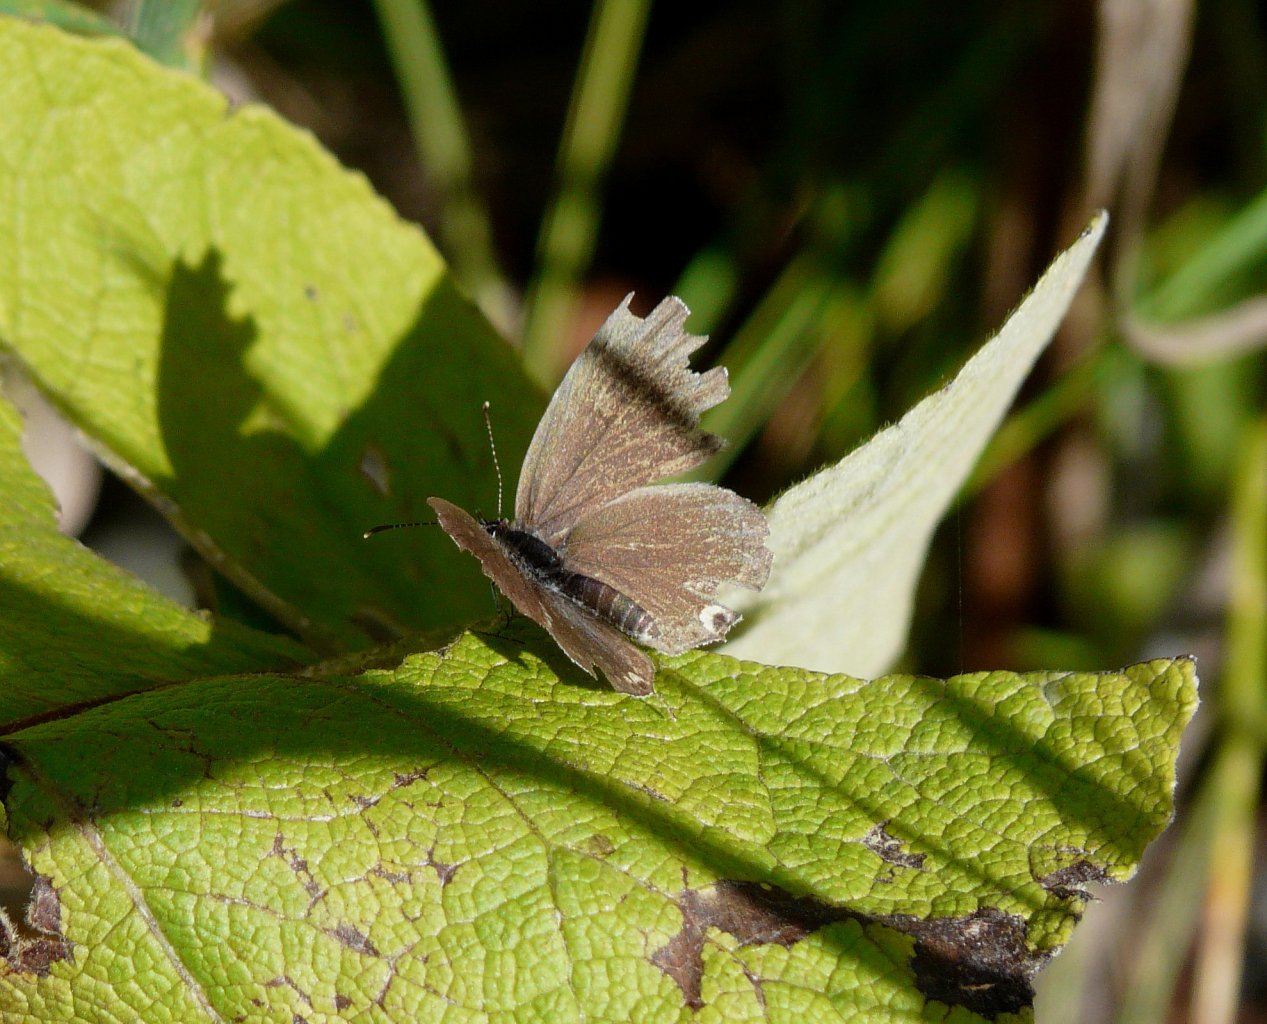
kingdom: Animalia
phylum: Arthropoda
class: Insecta
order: Lepidoptera
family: Lycaenidae
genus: Elkalyce
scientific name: Elkalyce comyntas
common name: Eastern Tailed-Blue
